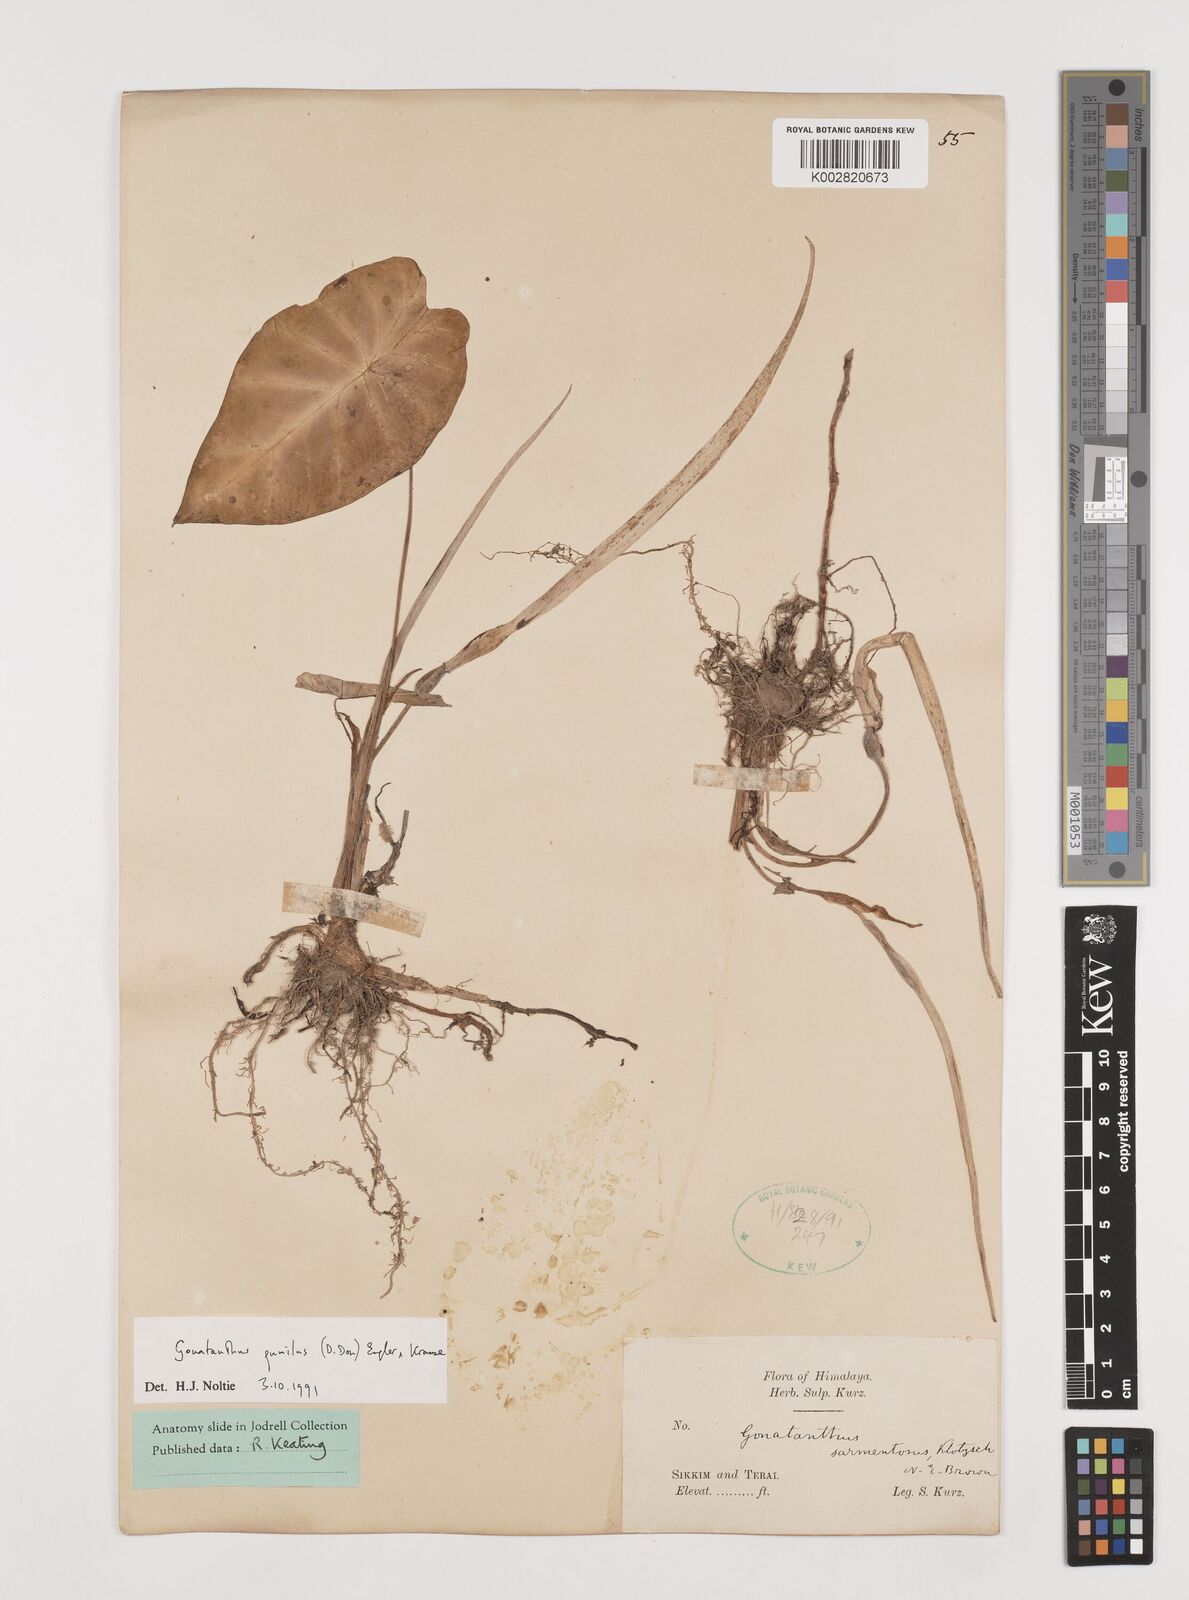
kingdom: Plantae
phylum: Tracheophyta
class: Liliopsida
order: Alismatales
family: Araceae
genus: Remusatia
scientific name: Remusatia pumila
